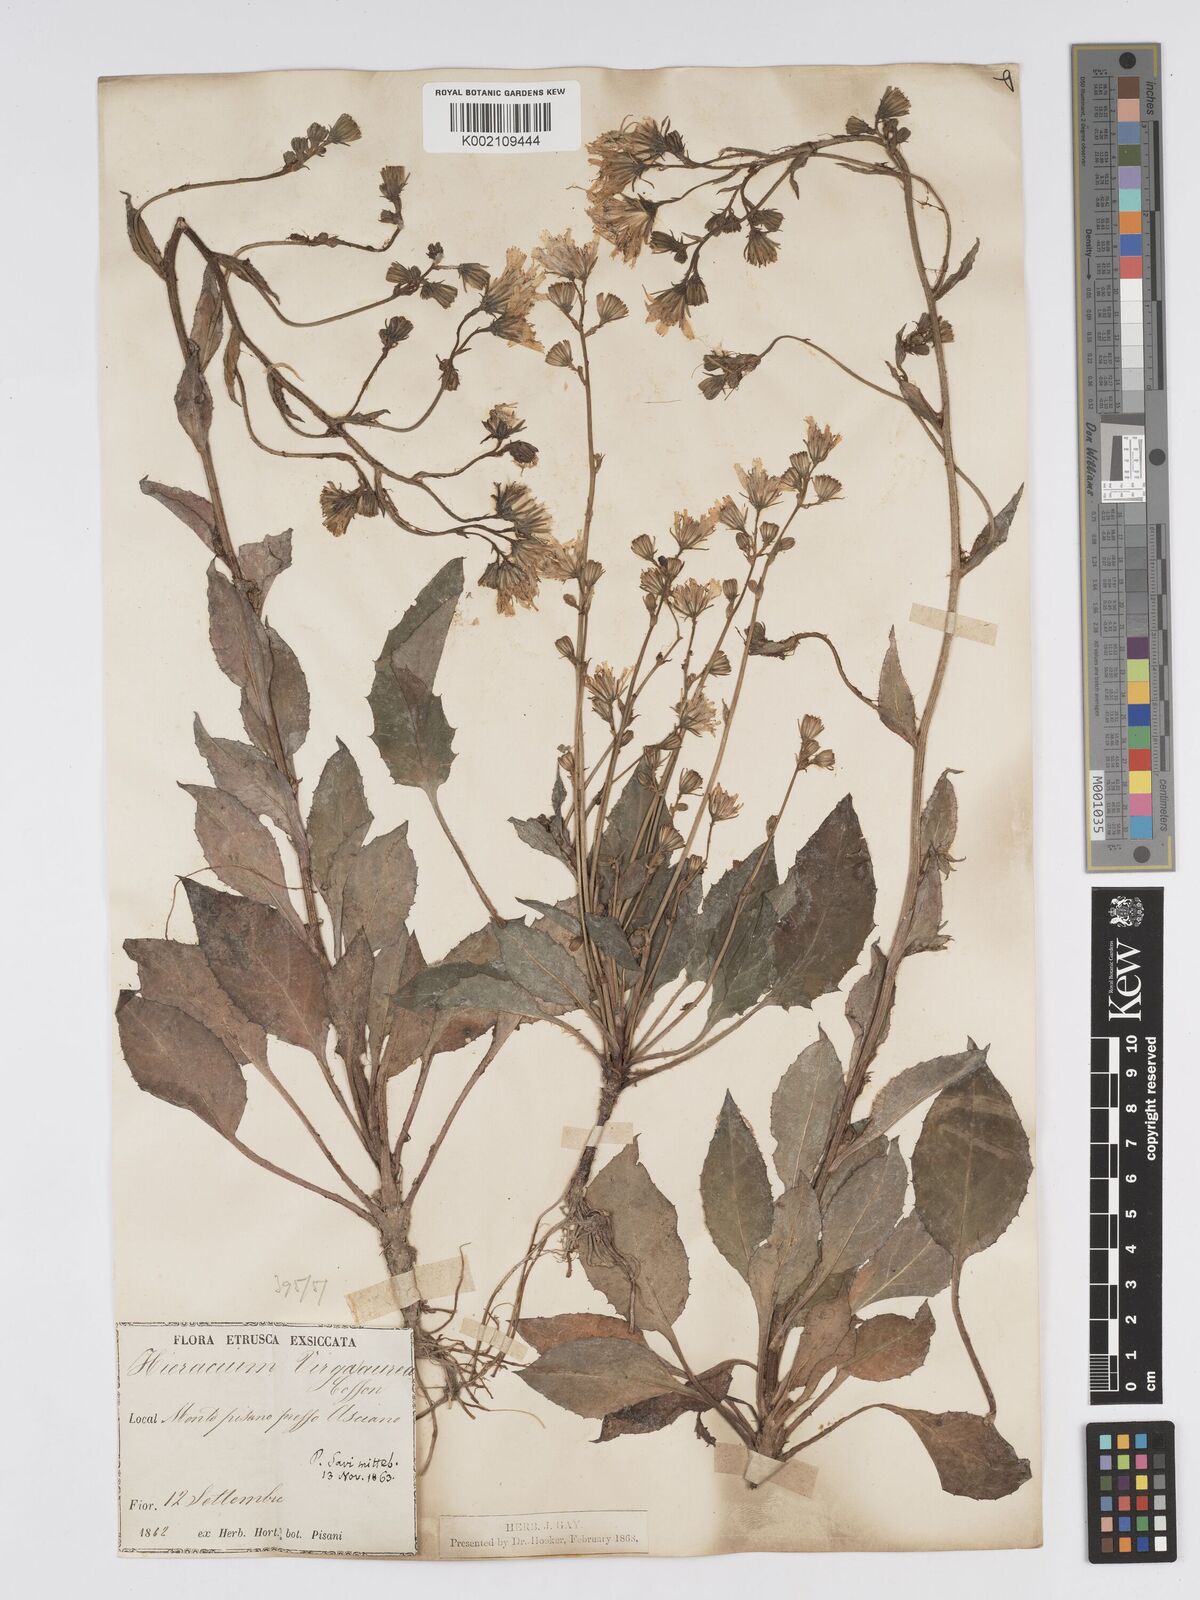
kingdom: Plantae
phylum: Tracheophyta
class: Magnoliopsida
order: Asterales
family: Asteraceae
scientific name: Asteraceae
